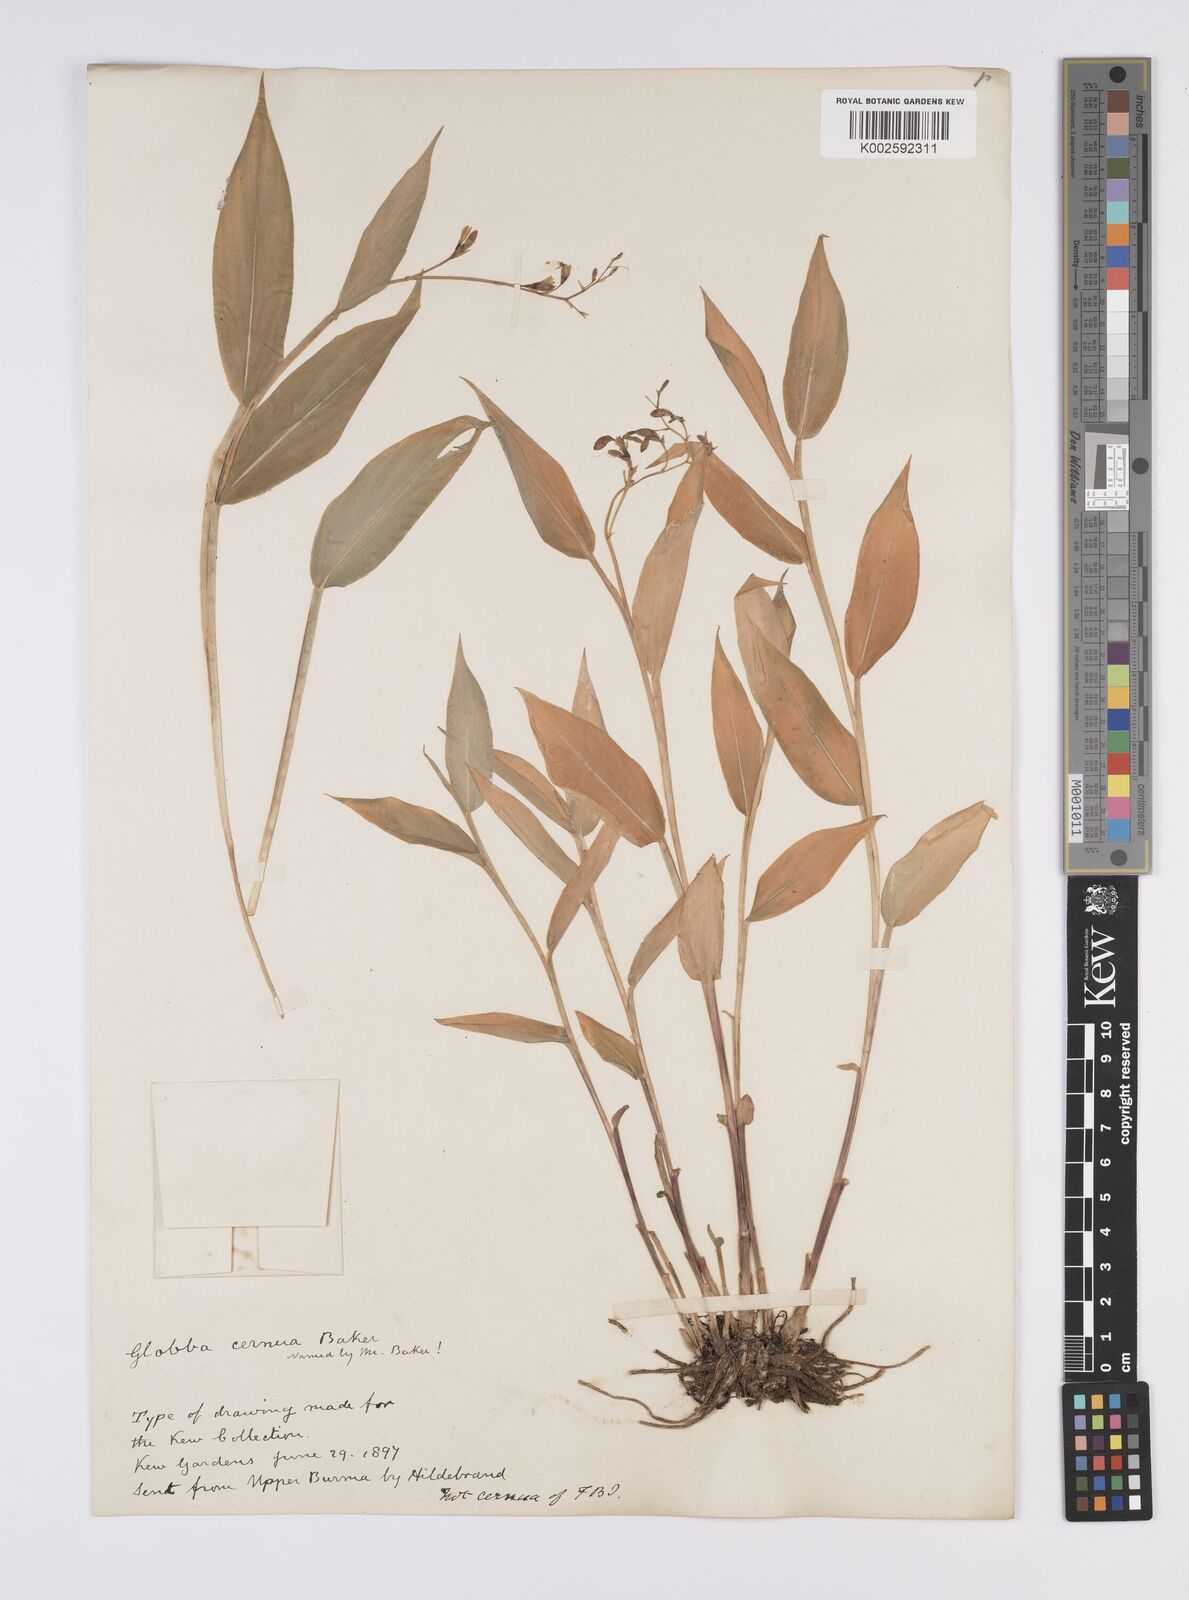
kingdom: Plantae
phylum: Tracheophyta
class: Liliopsida
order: Zingiberales
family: Zingiberaceae
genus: Globba
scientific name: Globba cernua
